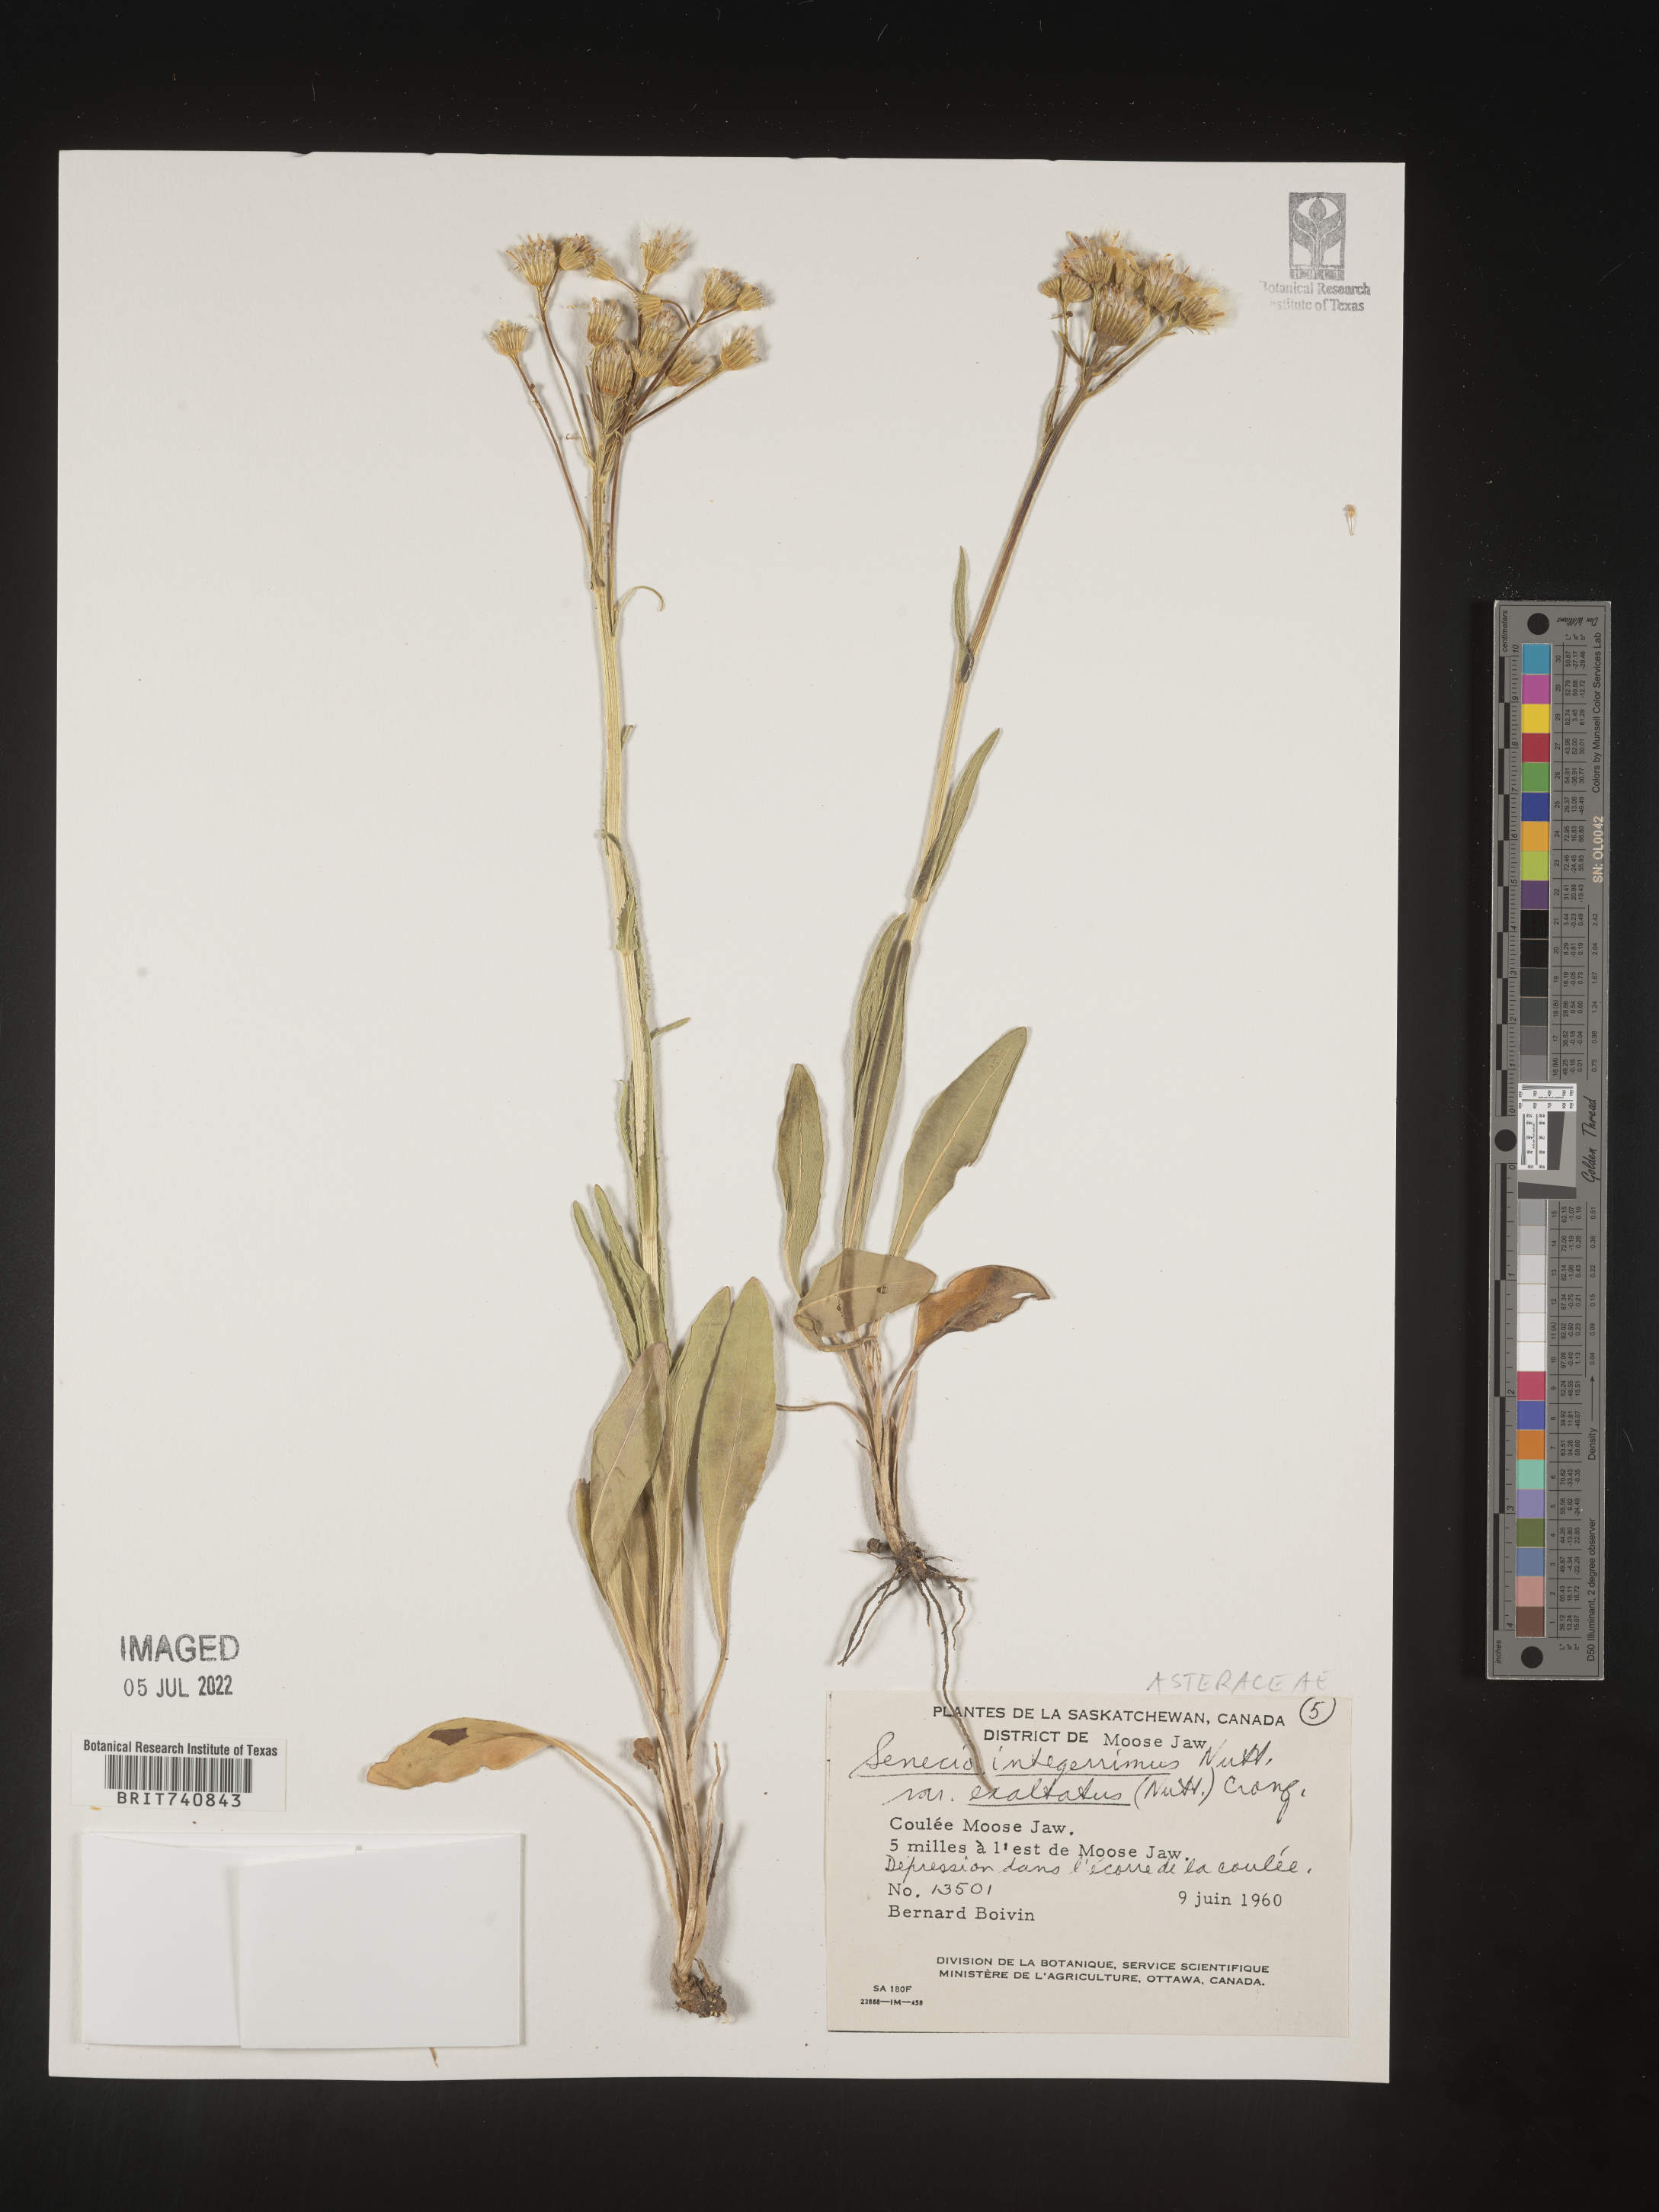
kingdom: Plantae
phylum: Tracheophyta
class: Magnoliopsida
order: Asterales
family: Asteraceae
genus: Senecio
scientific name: Senecio integerrimus
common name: Gaugeplant
